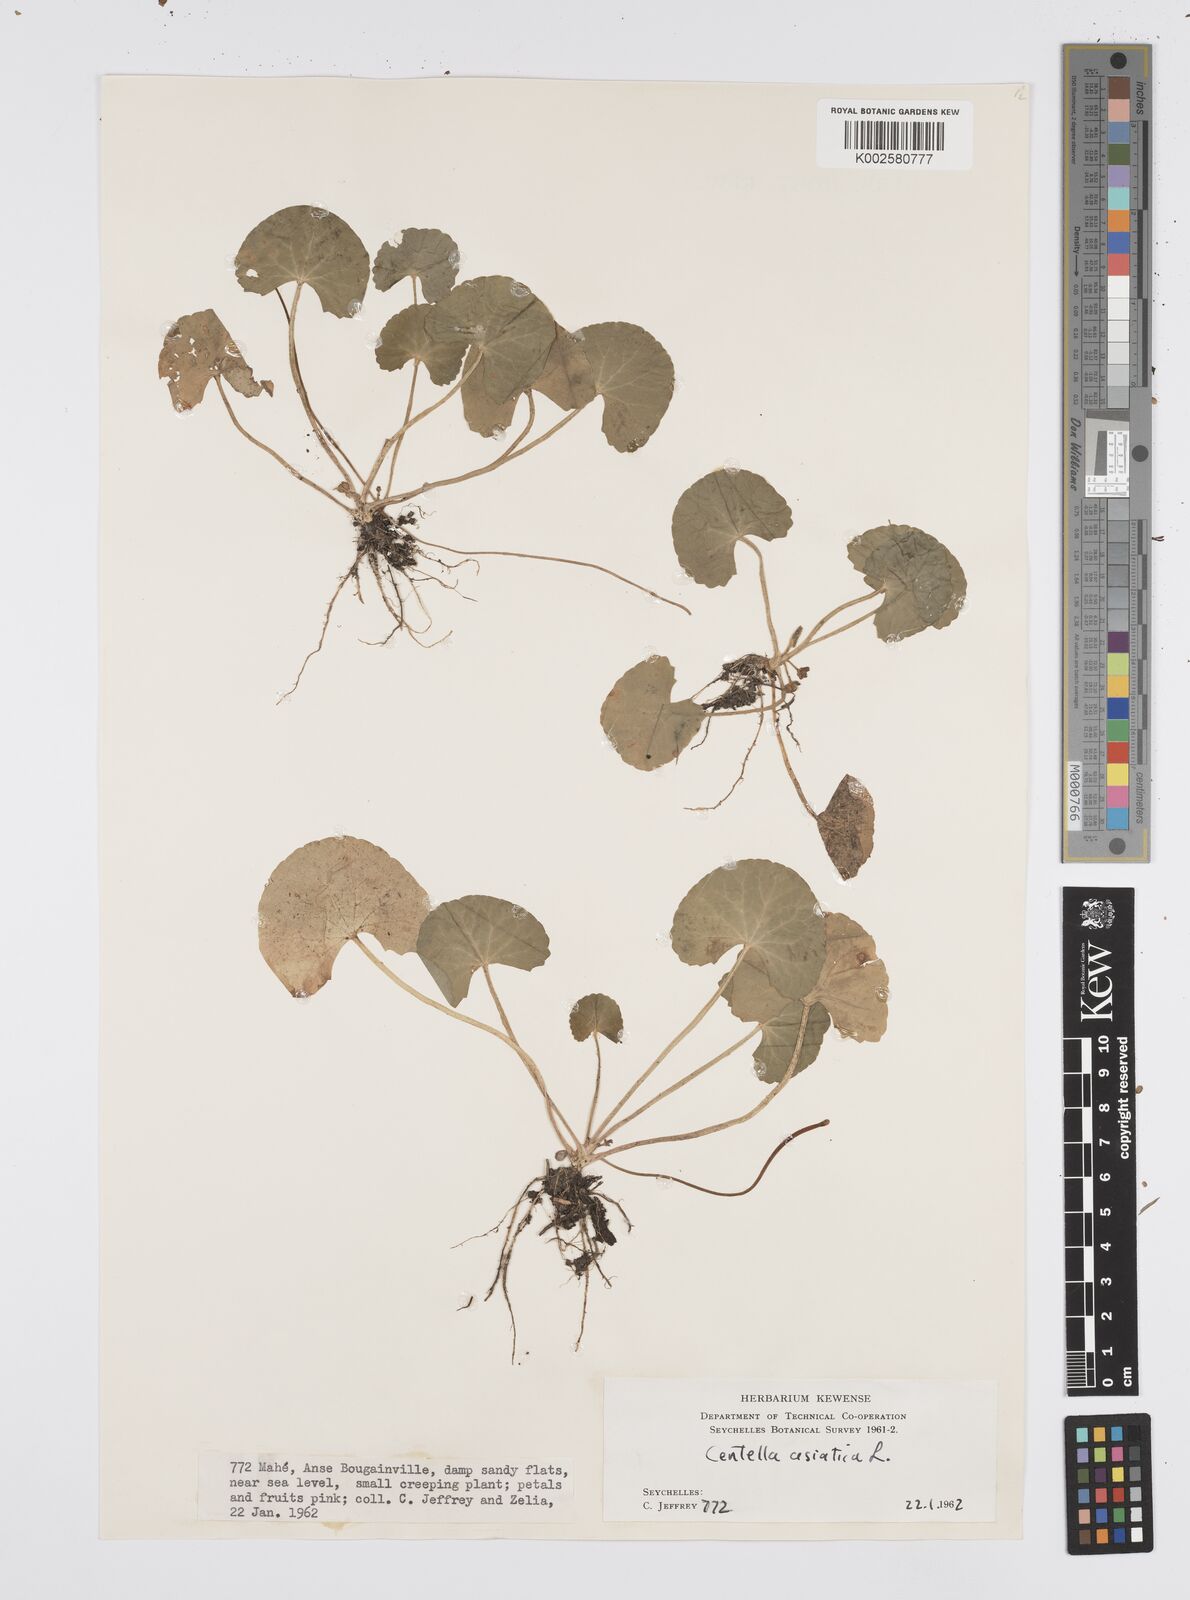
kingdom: Plantae
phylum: Tracheophyta
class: Magnoliopsida
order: Apiales
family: Apiaceae
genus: Centella
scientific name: Centella asiatica
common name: Spadeleaf
